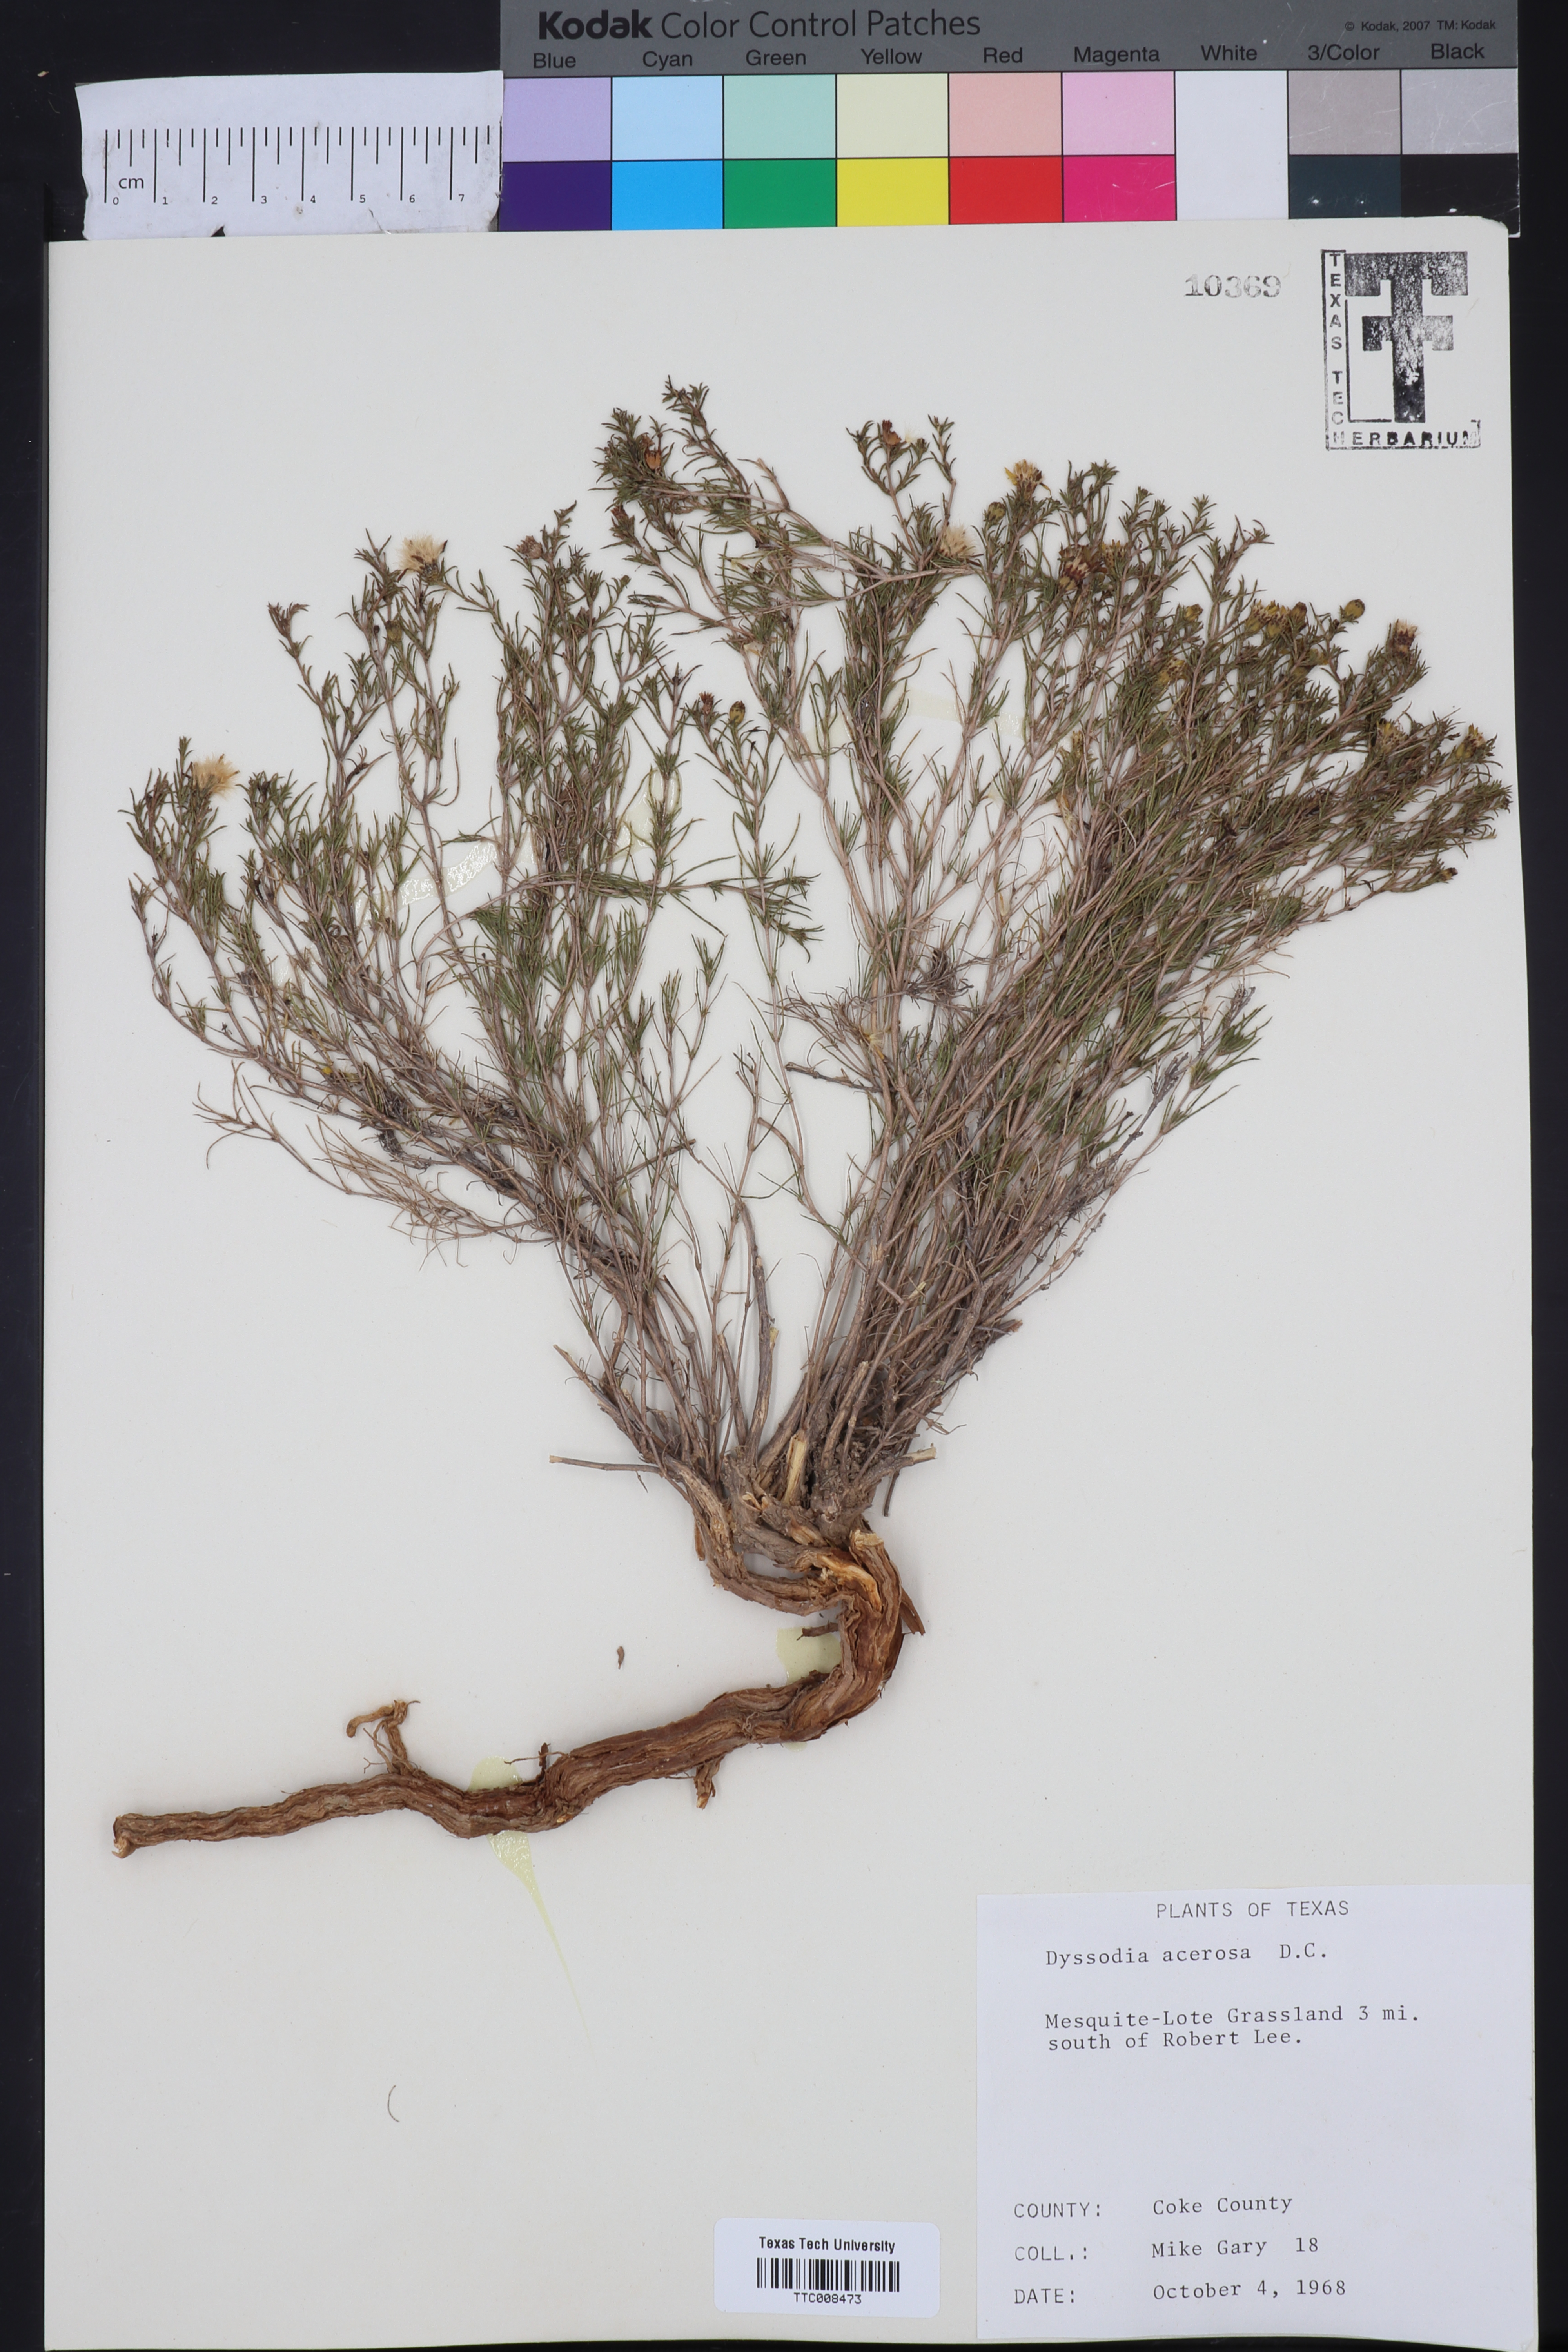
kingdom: Plantae
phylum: Tracheophyta
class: Magnoliopsida
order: Asterales
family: Asteraceae
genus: Thymophylla
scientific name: Thymophylla acerosa
